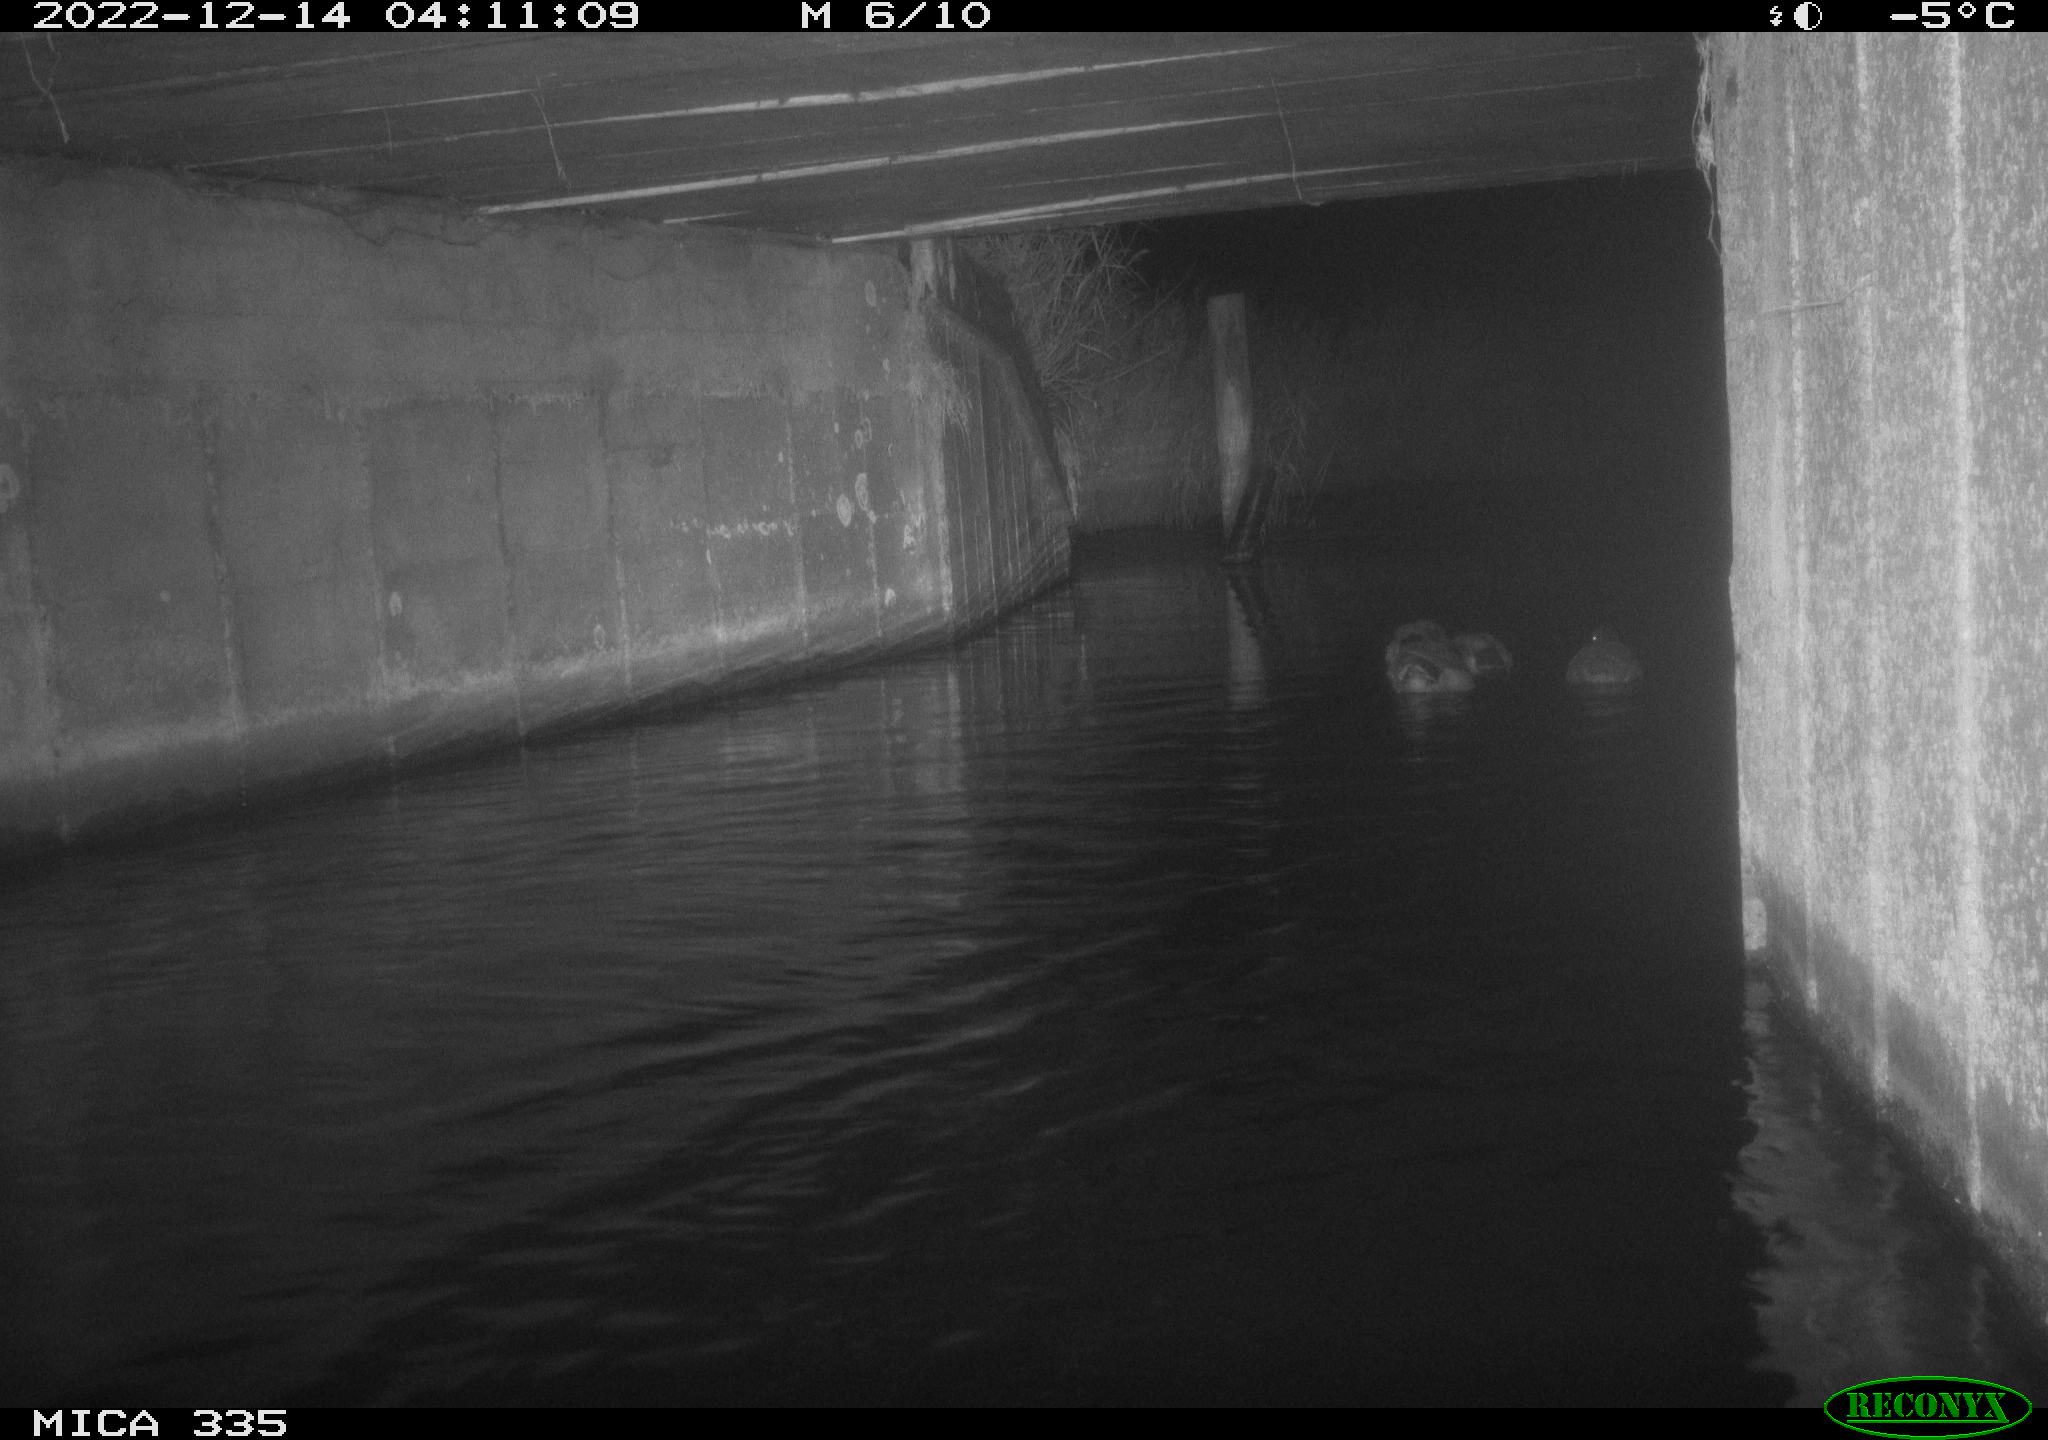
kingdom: Animalia
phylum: Chordata
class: Aves
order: Anseriformes
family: Anatidae
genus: Anas
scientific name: Anas
